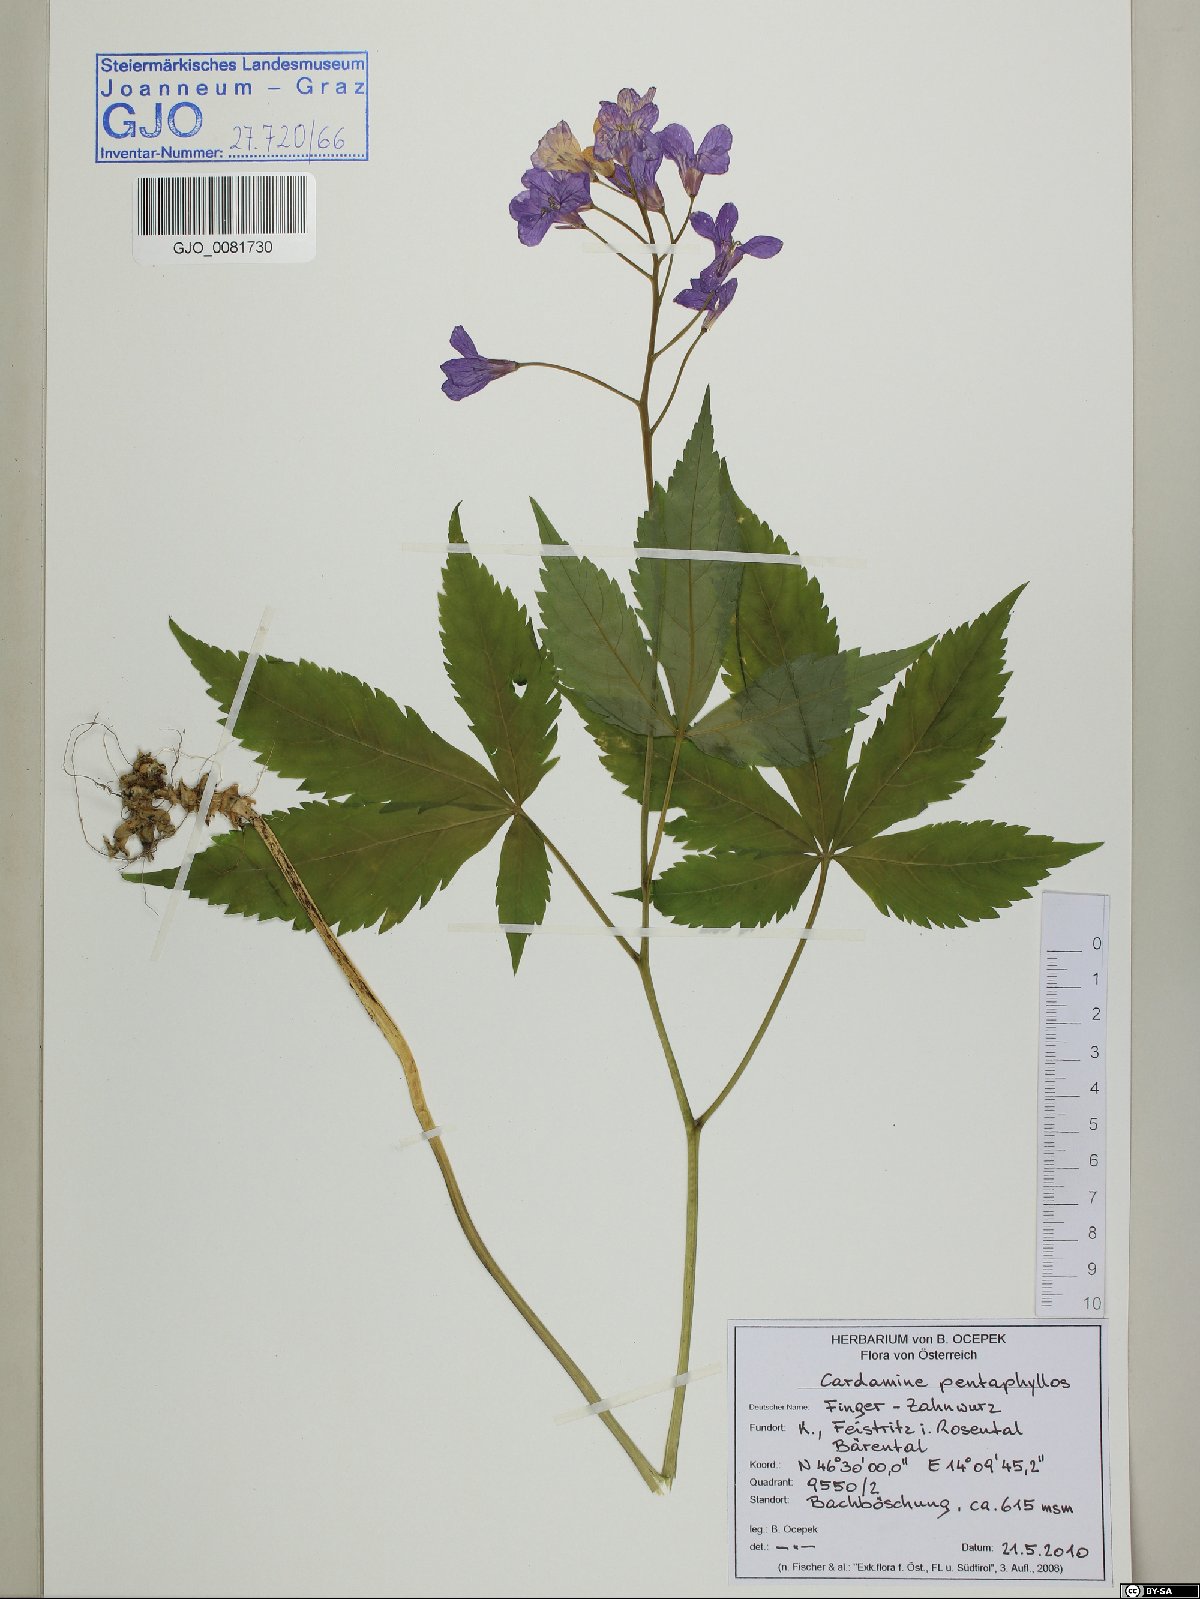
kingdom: Plantae
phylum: Tracheophyta
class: Magnoliopsida
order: Brassicales
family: Brassicaceae
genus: Cardamine
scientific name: Cardamine pentaphyllos
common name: Five-leaflet bitter-cress
